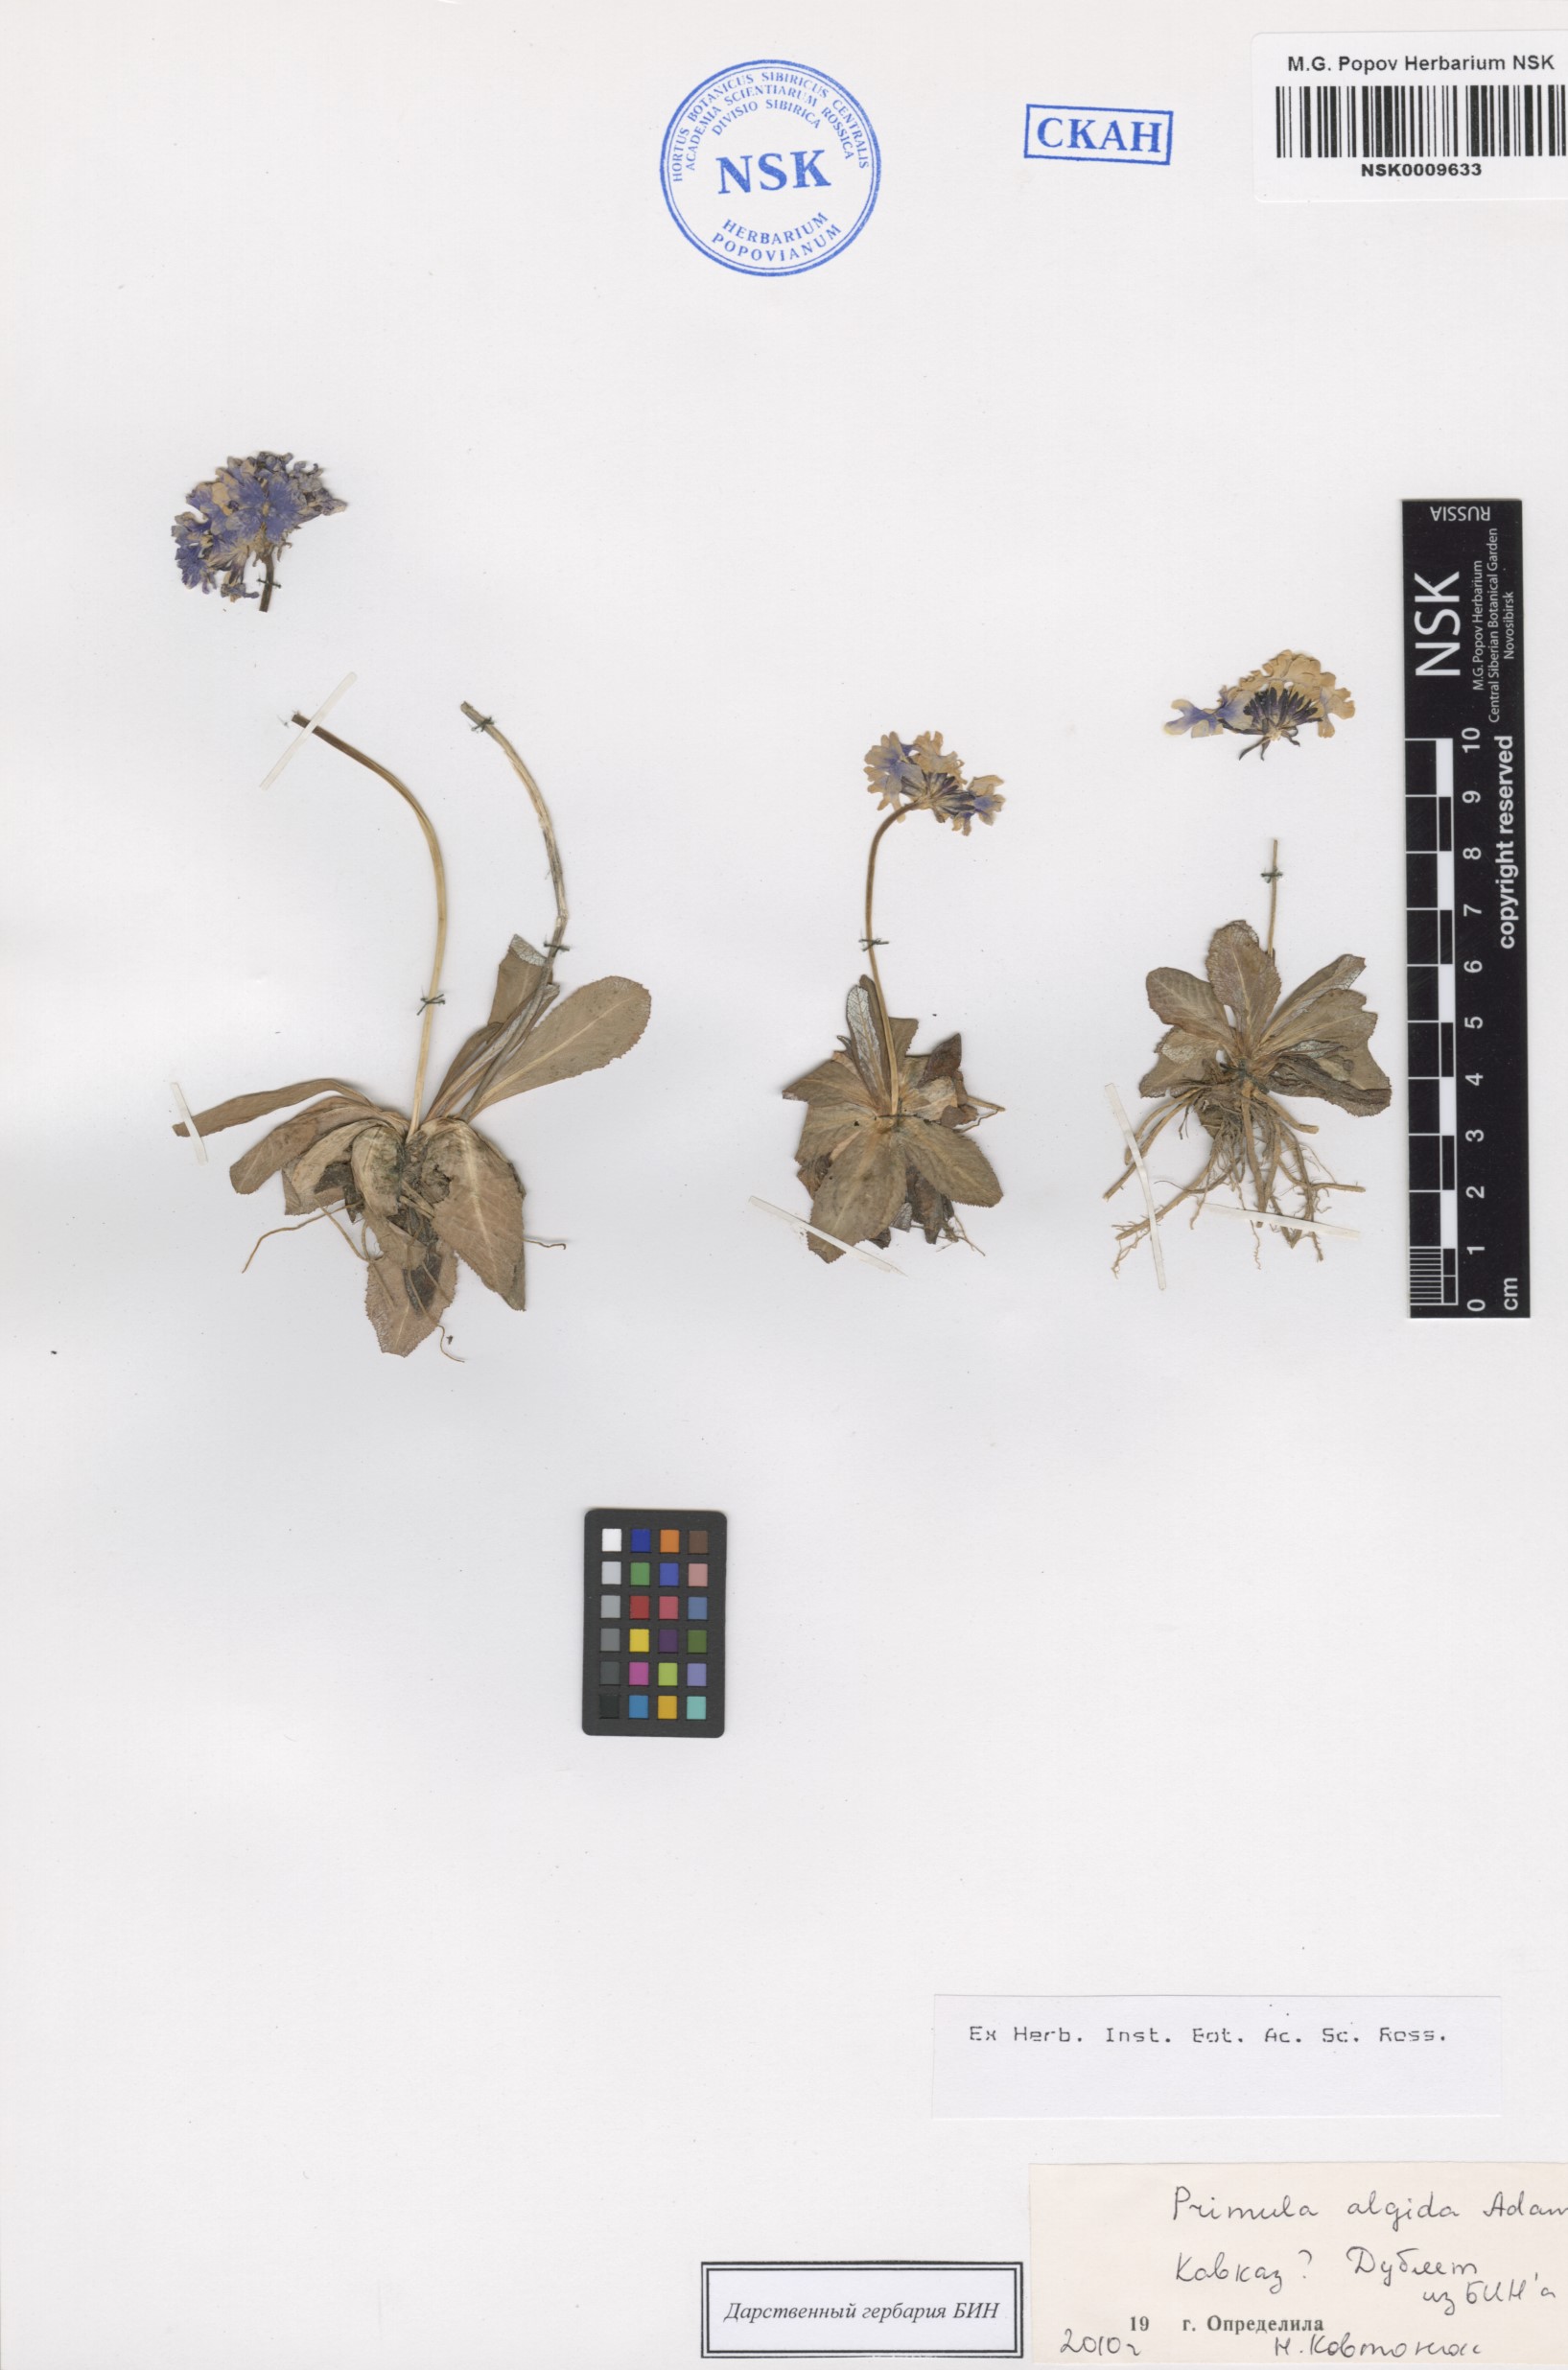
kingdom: Plantae
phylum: Tracheophyta
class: Magnoliopsida
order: Ericales
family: Primulaceae
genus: Primula
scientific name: Primula algida
